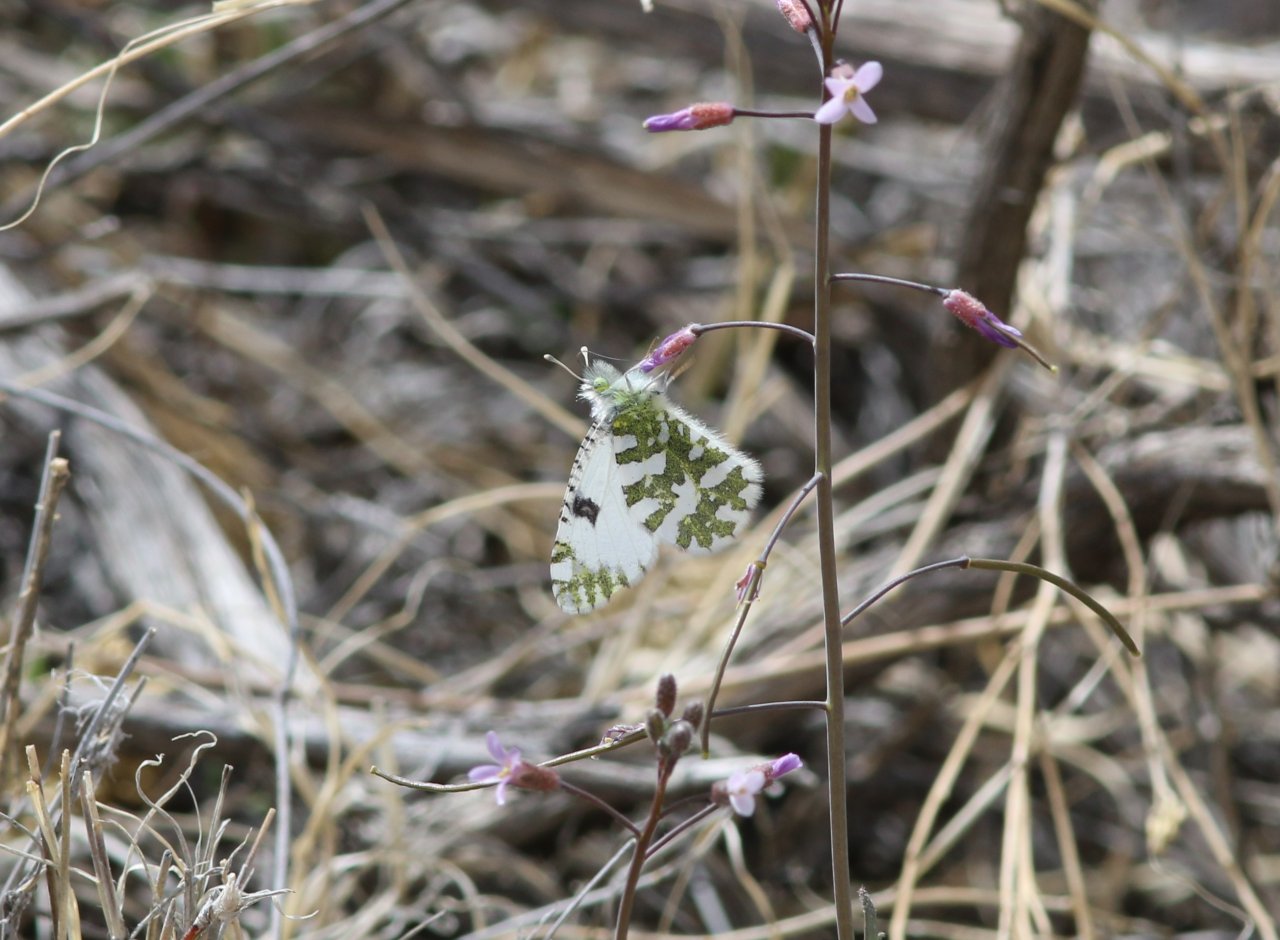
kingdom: Animalia
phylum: Arthropoda
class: Insecta
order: Lepidoptera
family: Pieridae
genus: Euchloe
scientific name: Euchloe lotta
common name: Desert Marble
